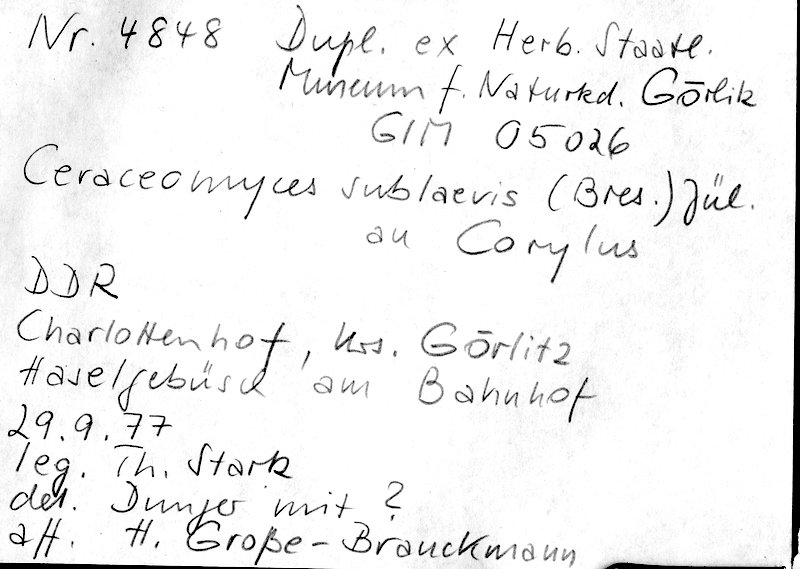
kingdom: Fungi
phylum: Basidiomycota
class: Agaricomycetes
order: Amylocorticiales
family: Amylocorticiaceae
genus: Ceraceomyces
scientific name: Ceraceomyces sublaevis
